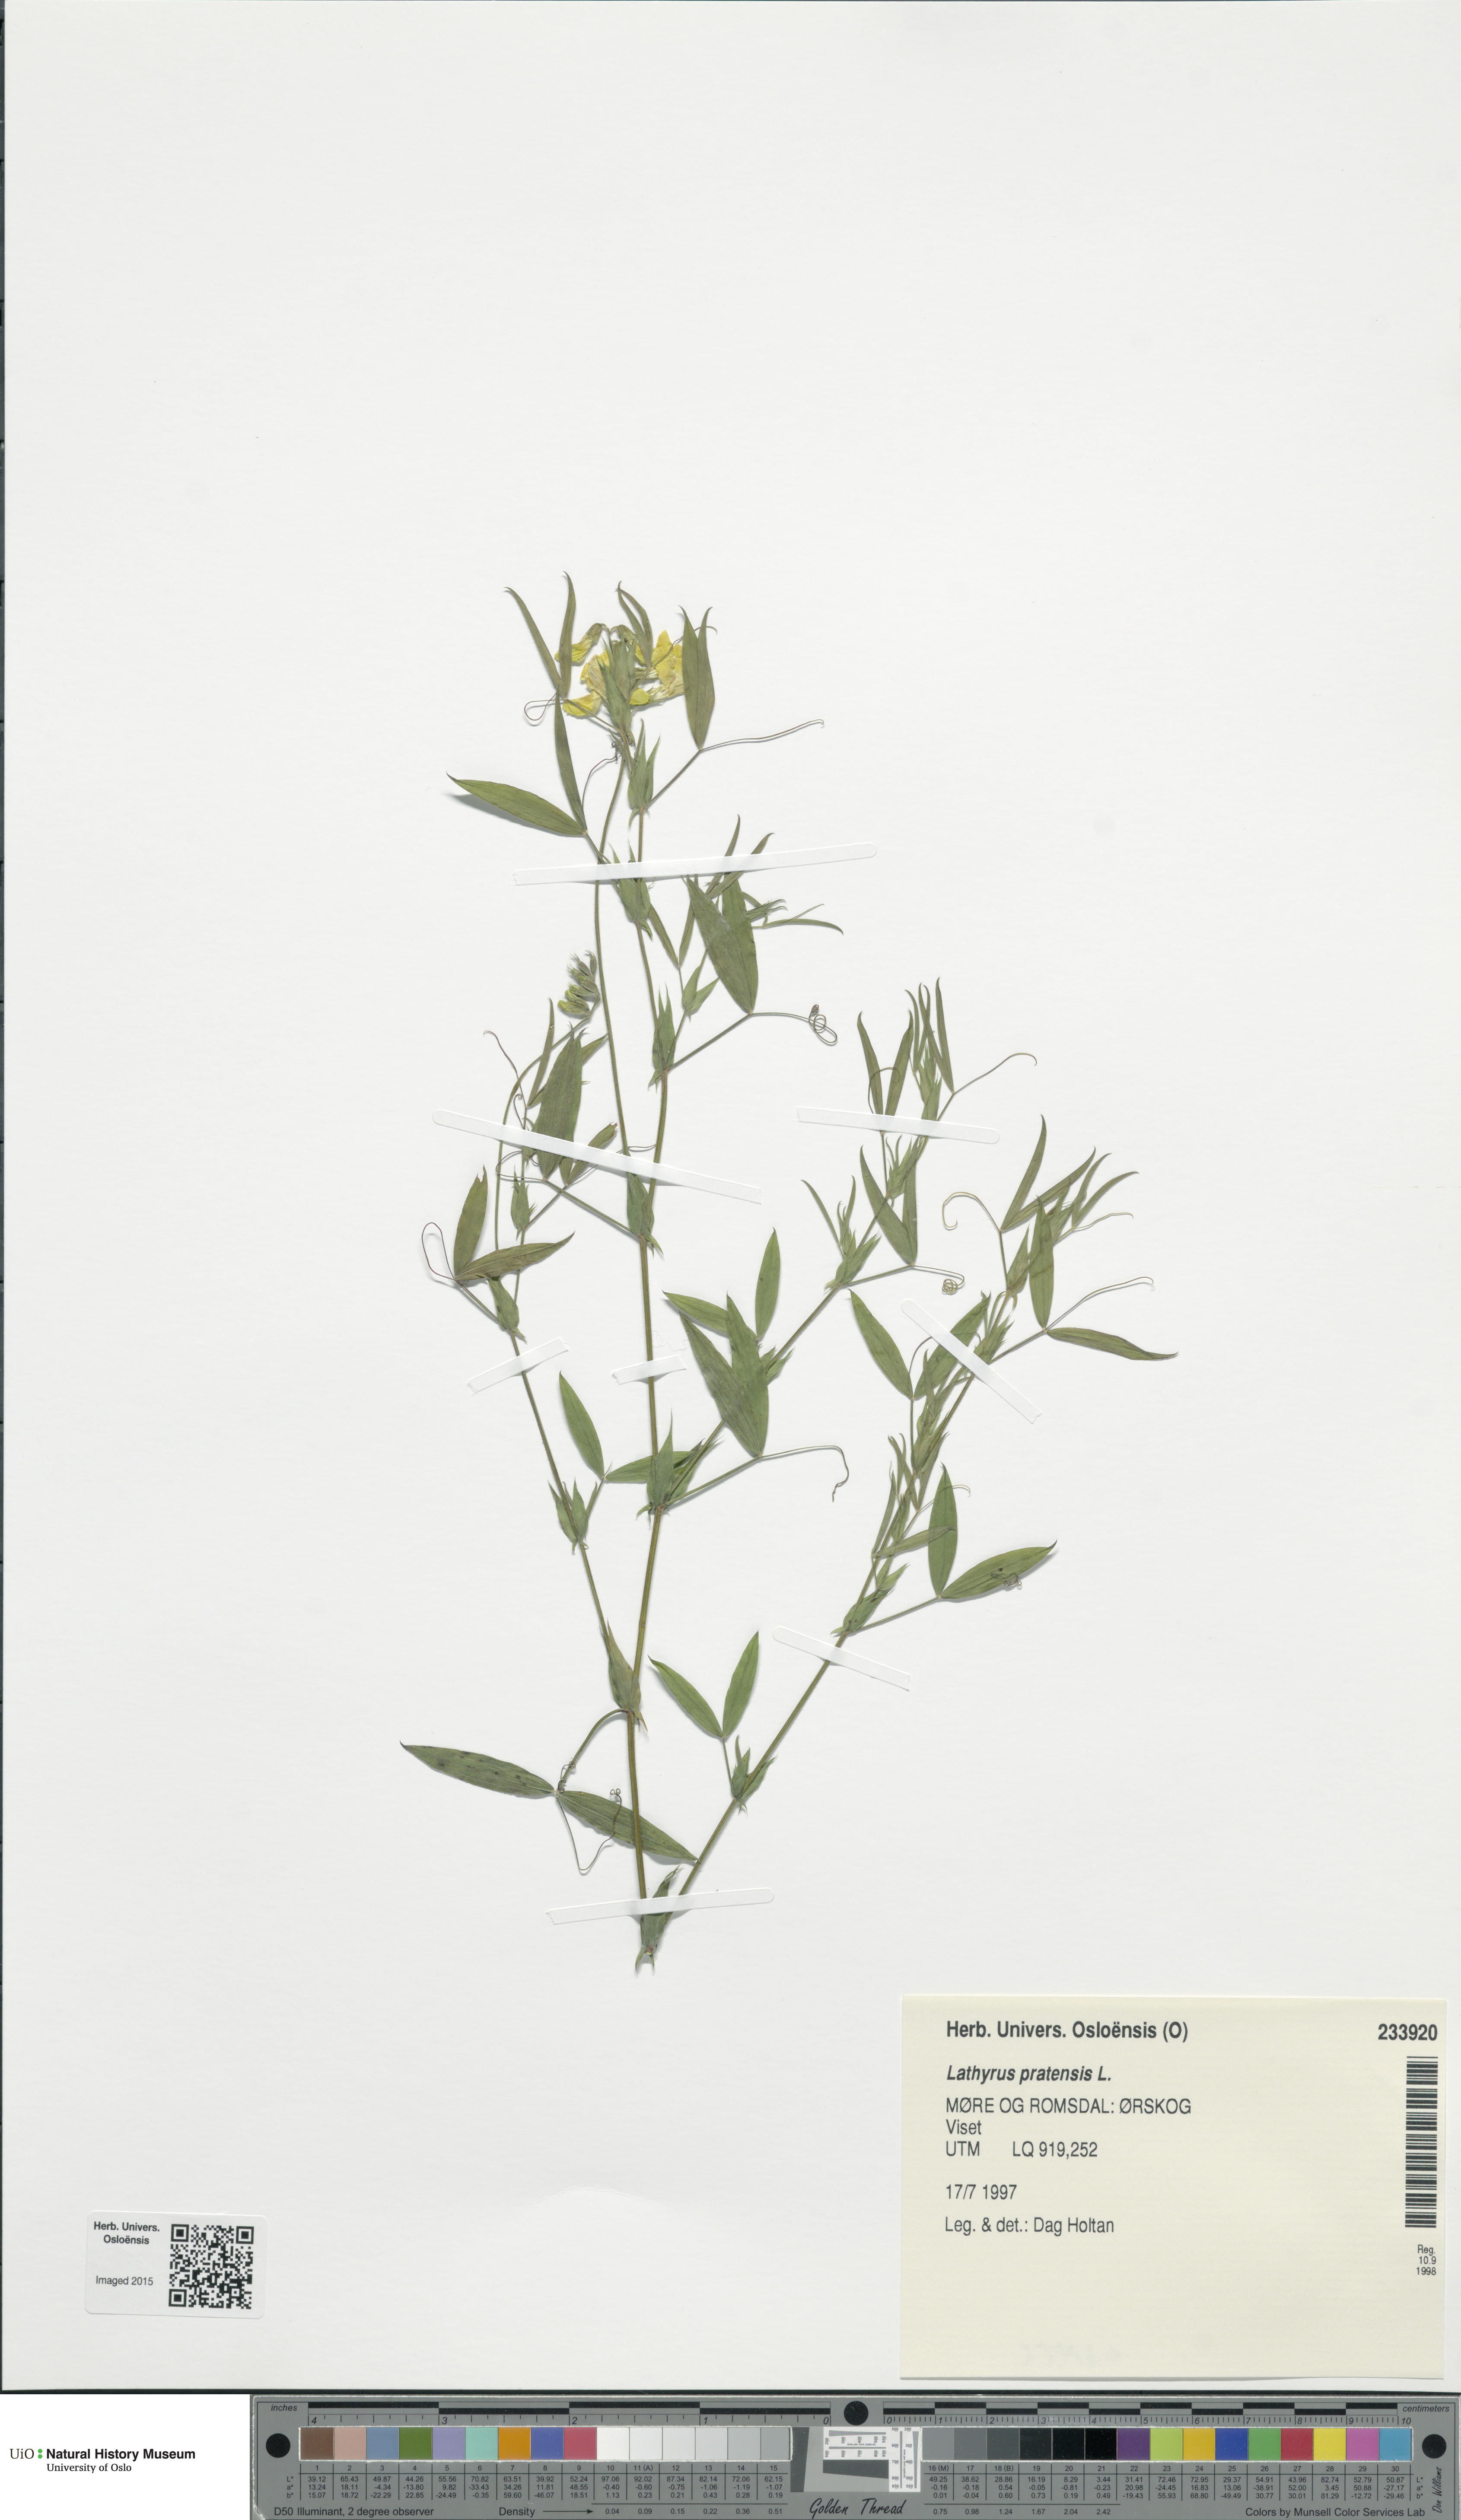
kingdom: Plantae
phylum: Tracheophyta
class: Magnoliopsida
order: Fabales
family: Fabaceae
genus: Lathyrus
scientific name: Lathyrus pratensis
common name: Meadow vetchling
